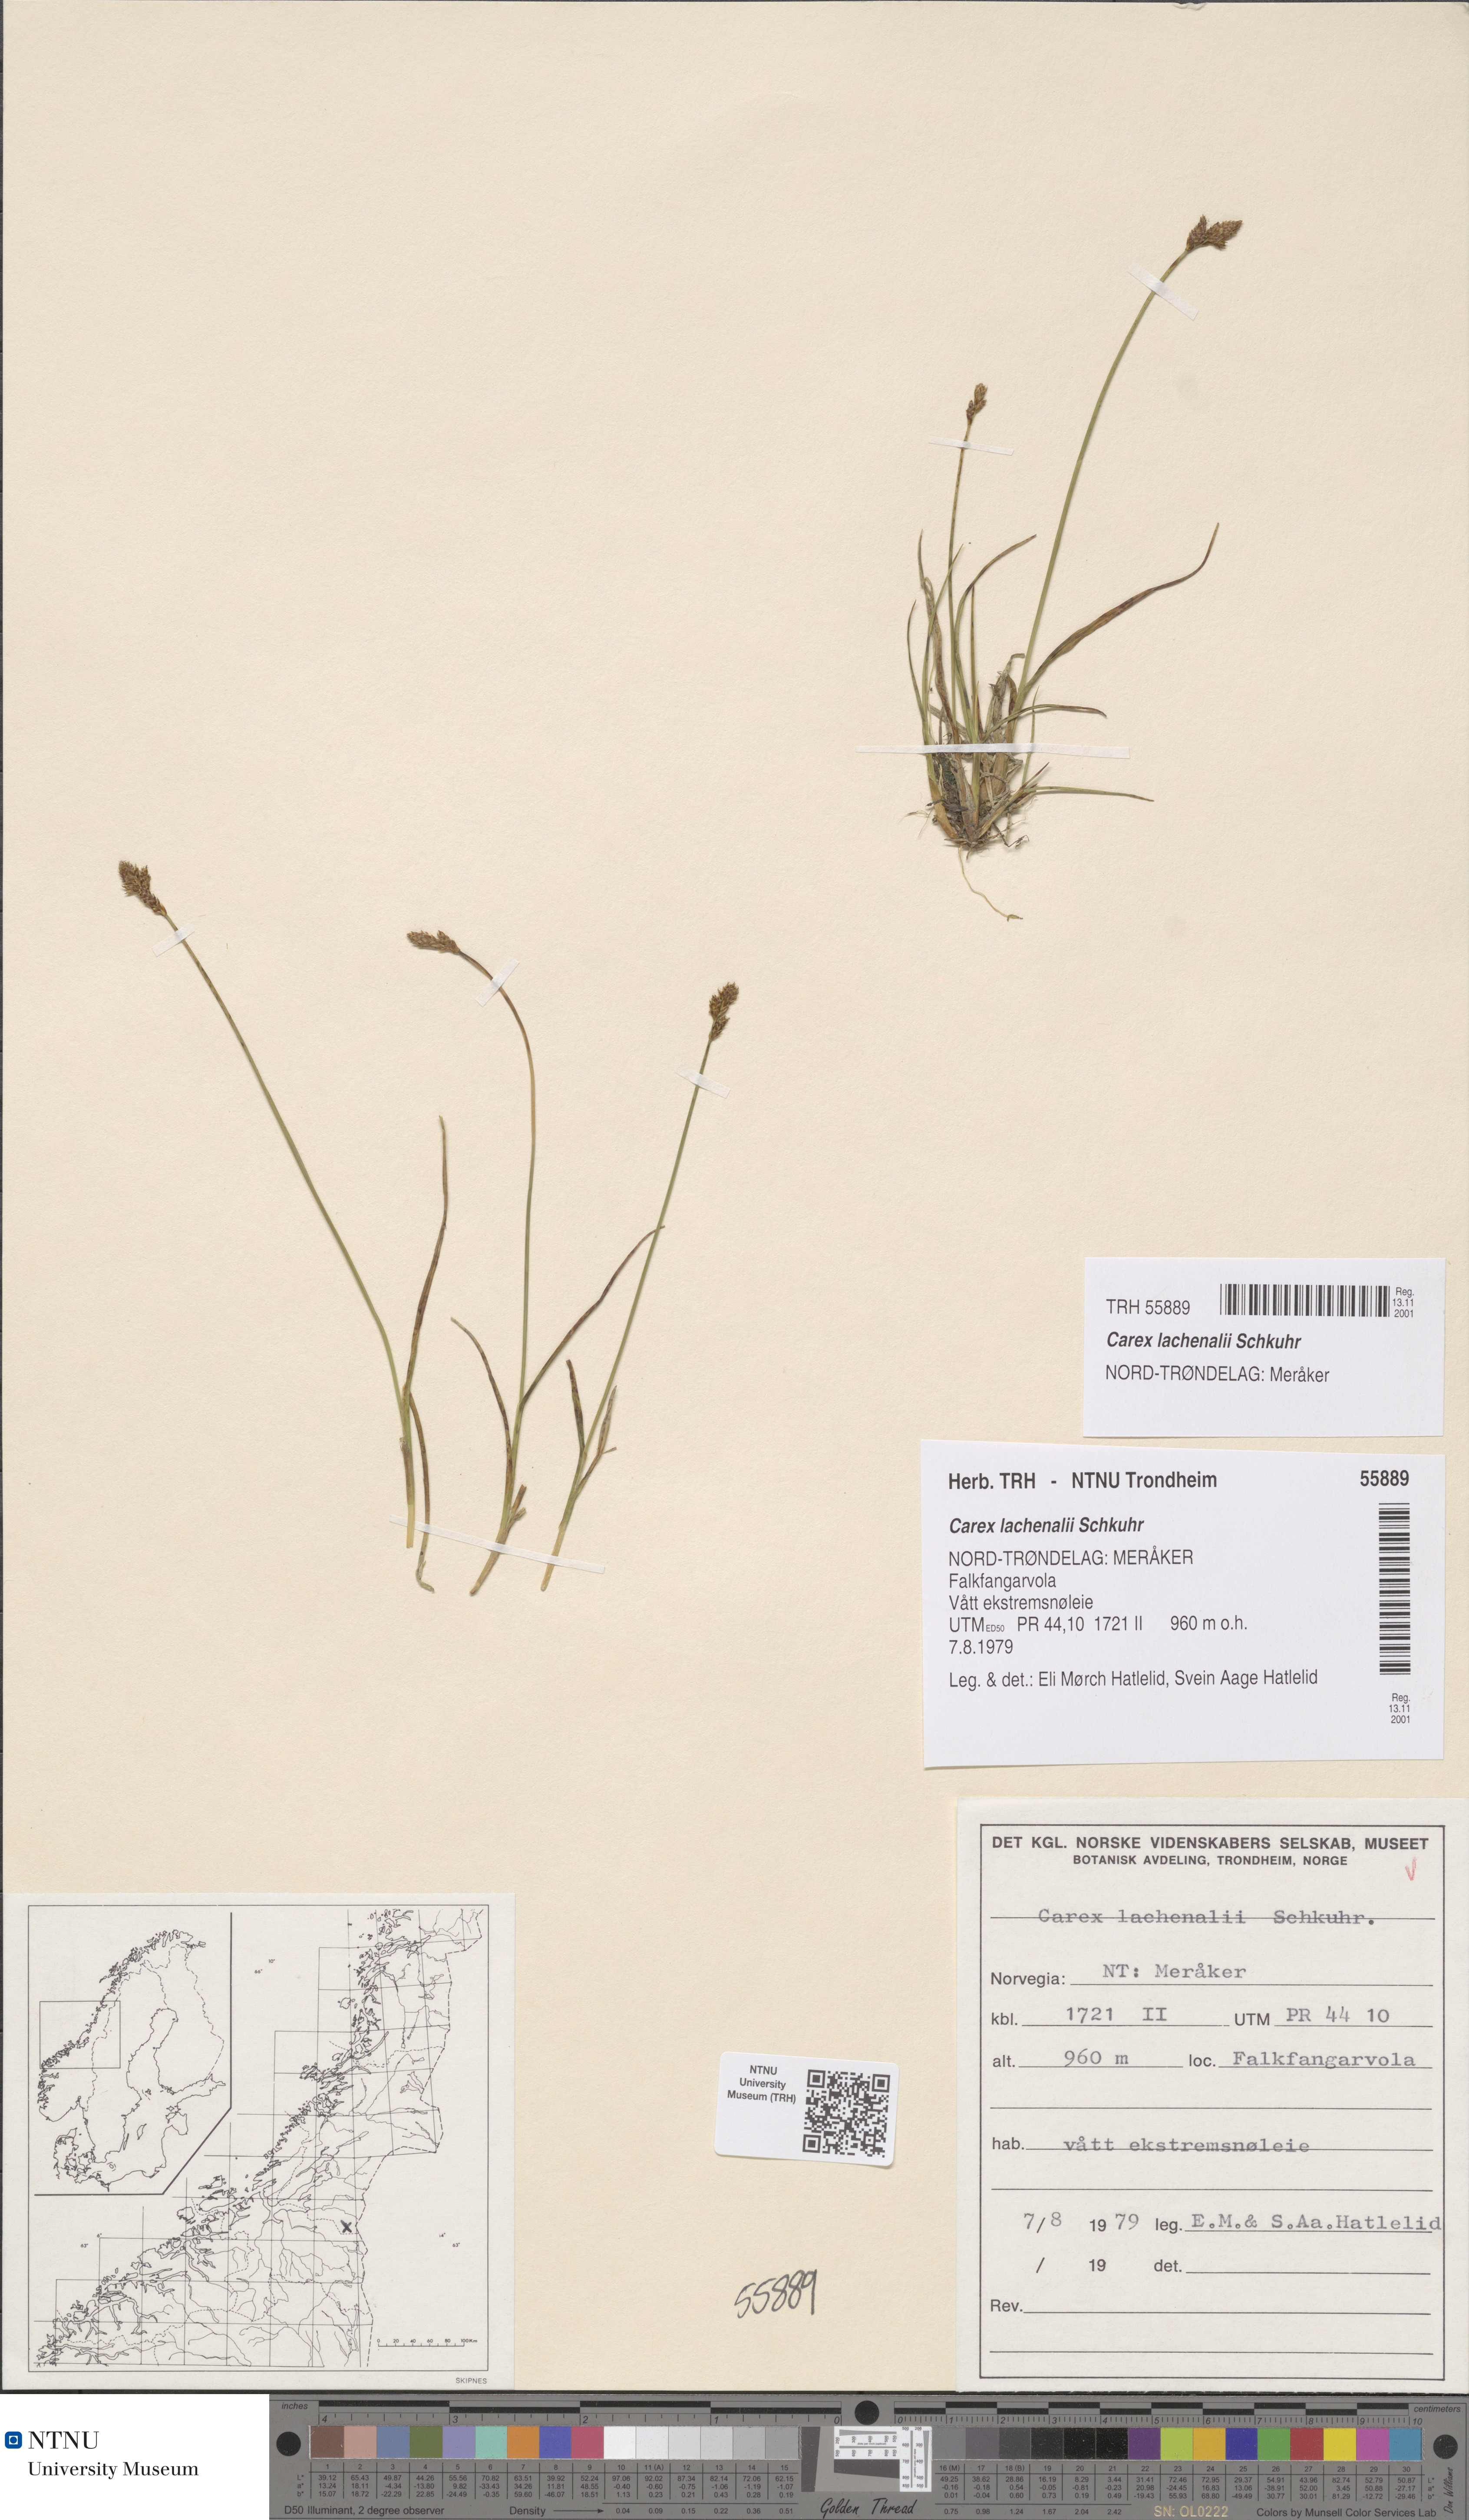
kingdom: Plantae
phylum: Tracheophyta
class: Liliopsida
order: Poales
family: Cyperaceae
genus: Carex
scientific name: Carex lachenalii
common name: Hare's-foot sedge
